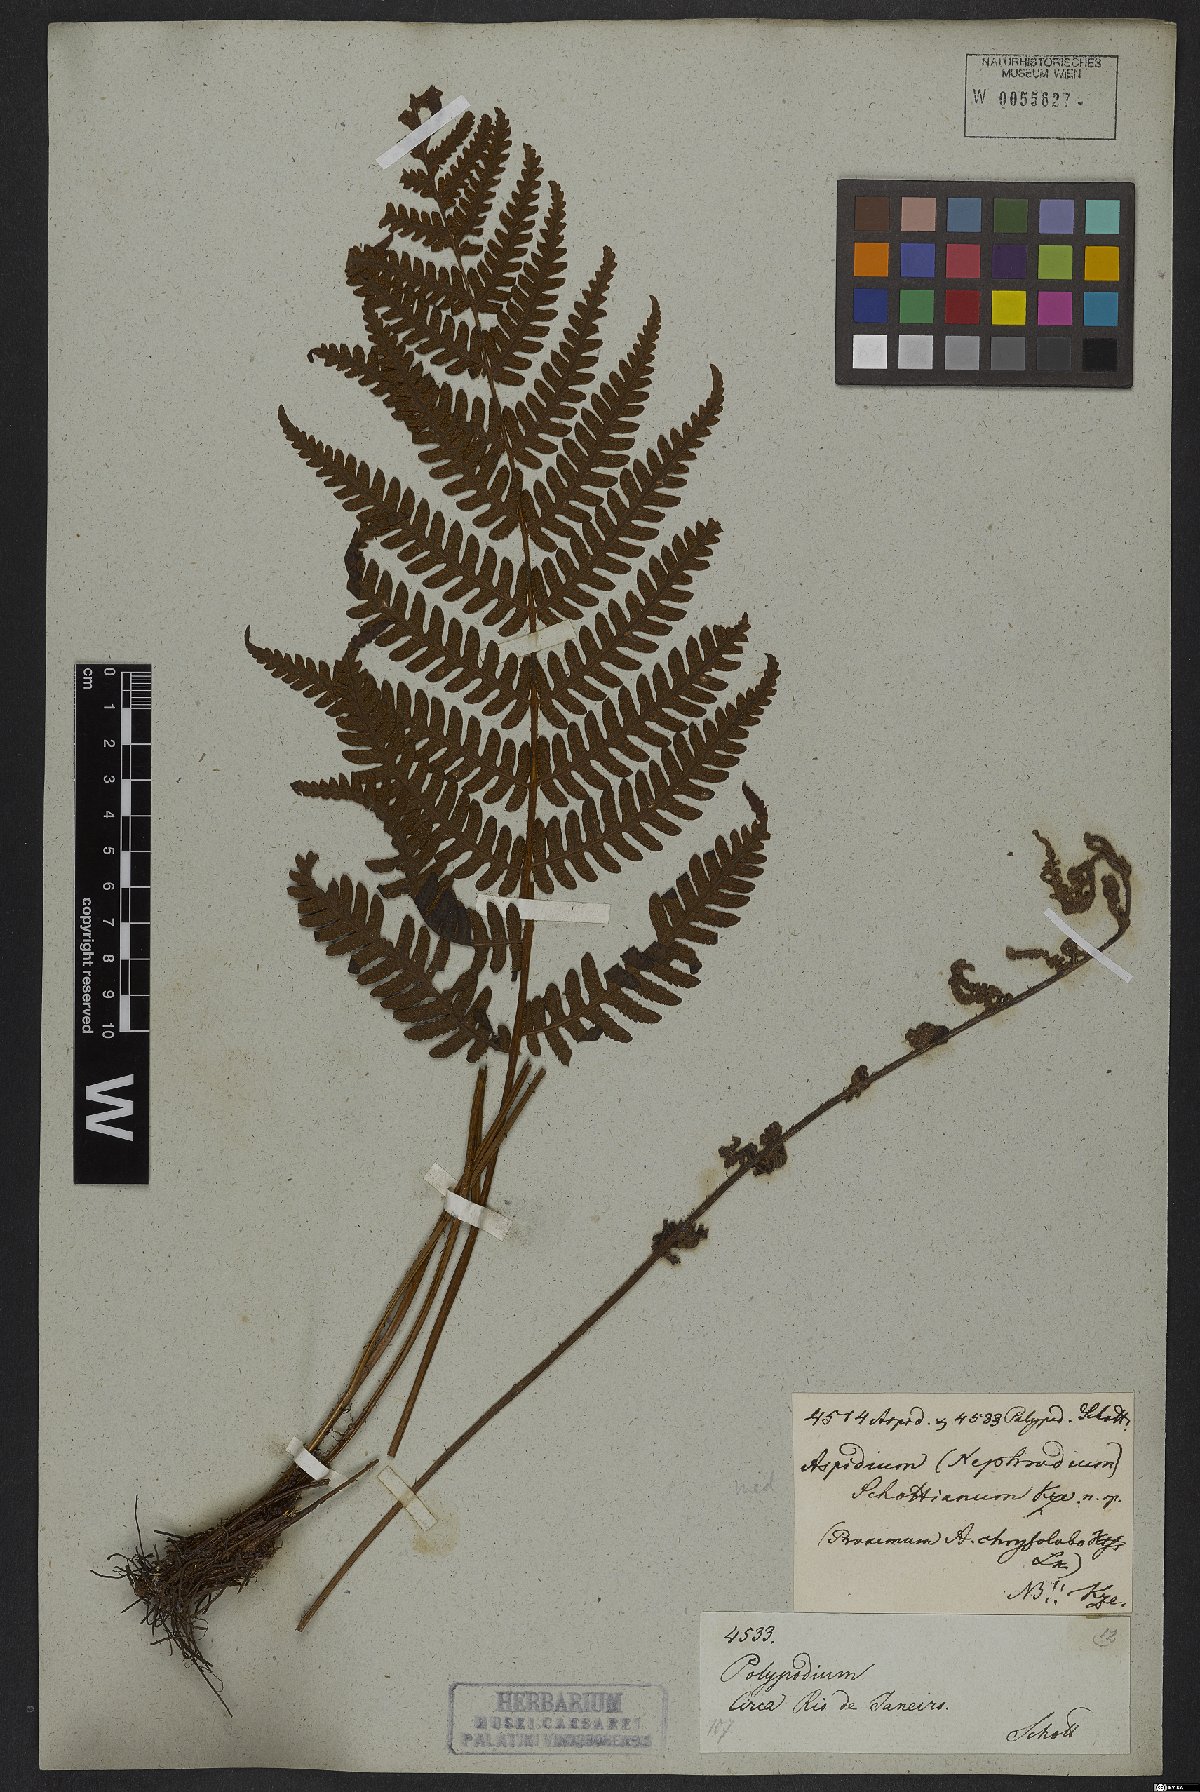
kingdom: Plantae
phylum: Tracheophyta
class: Polypodiopsida
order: Polypodiales
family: Dryopteridaceae
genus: Ctenitis
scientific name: Ctenitis falciculata
